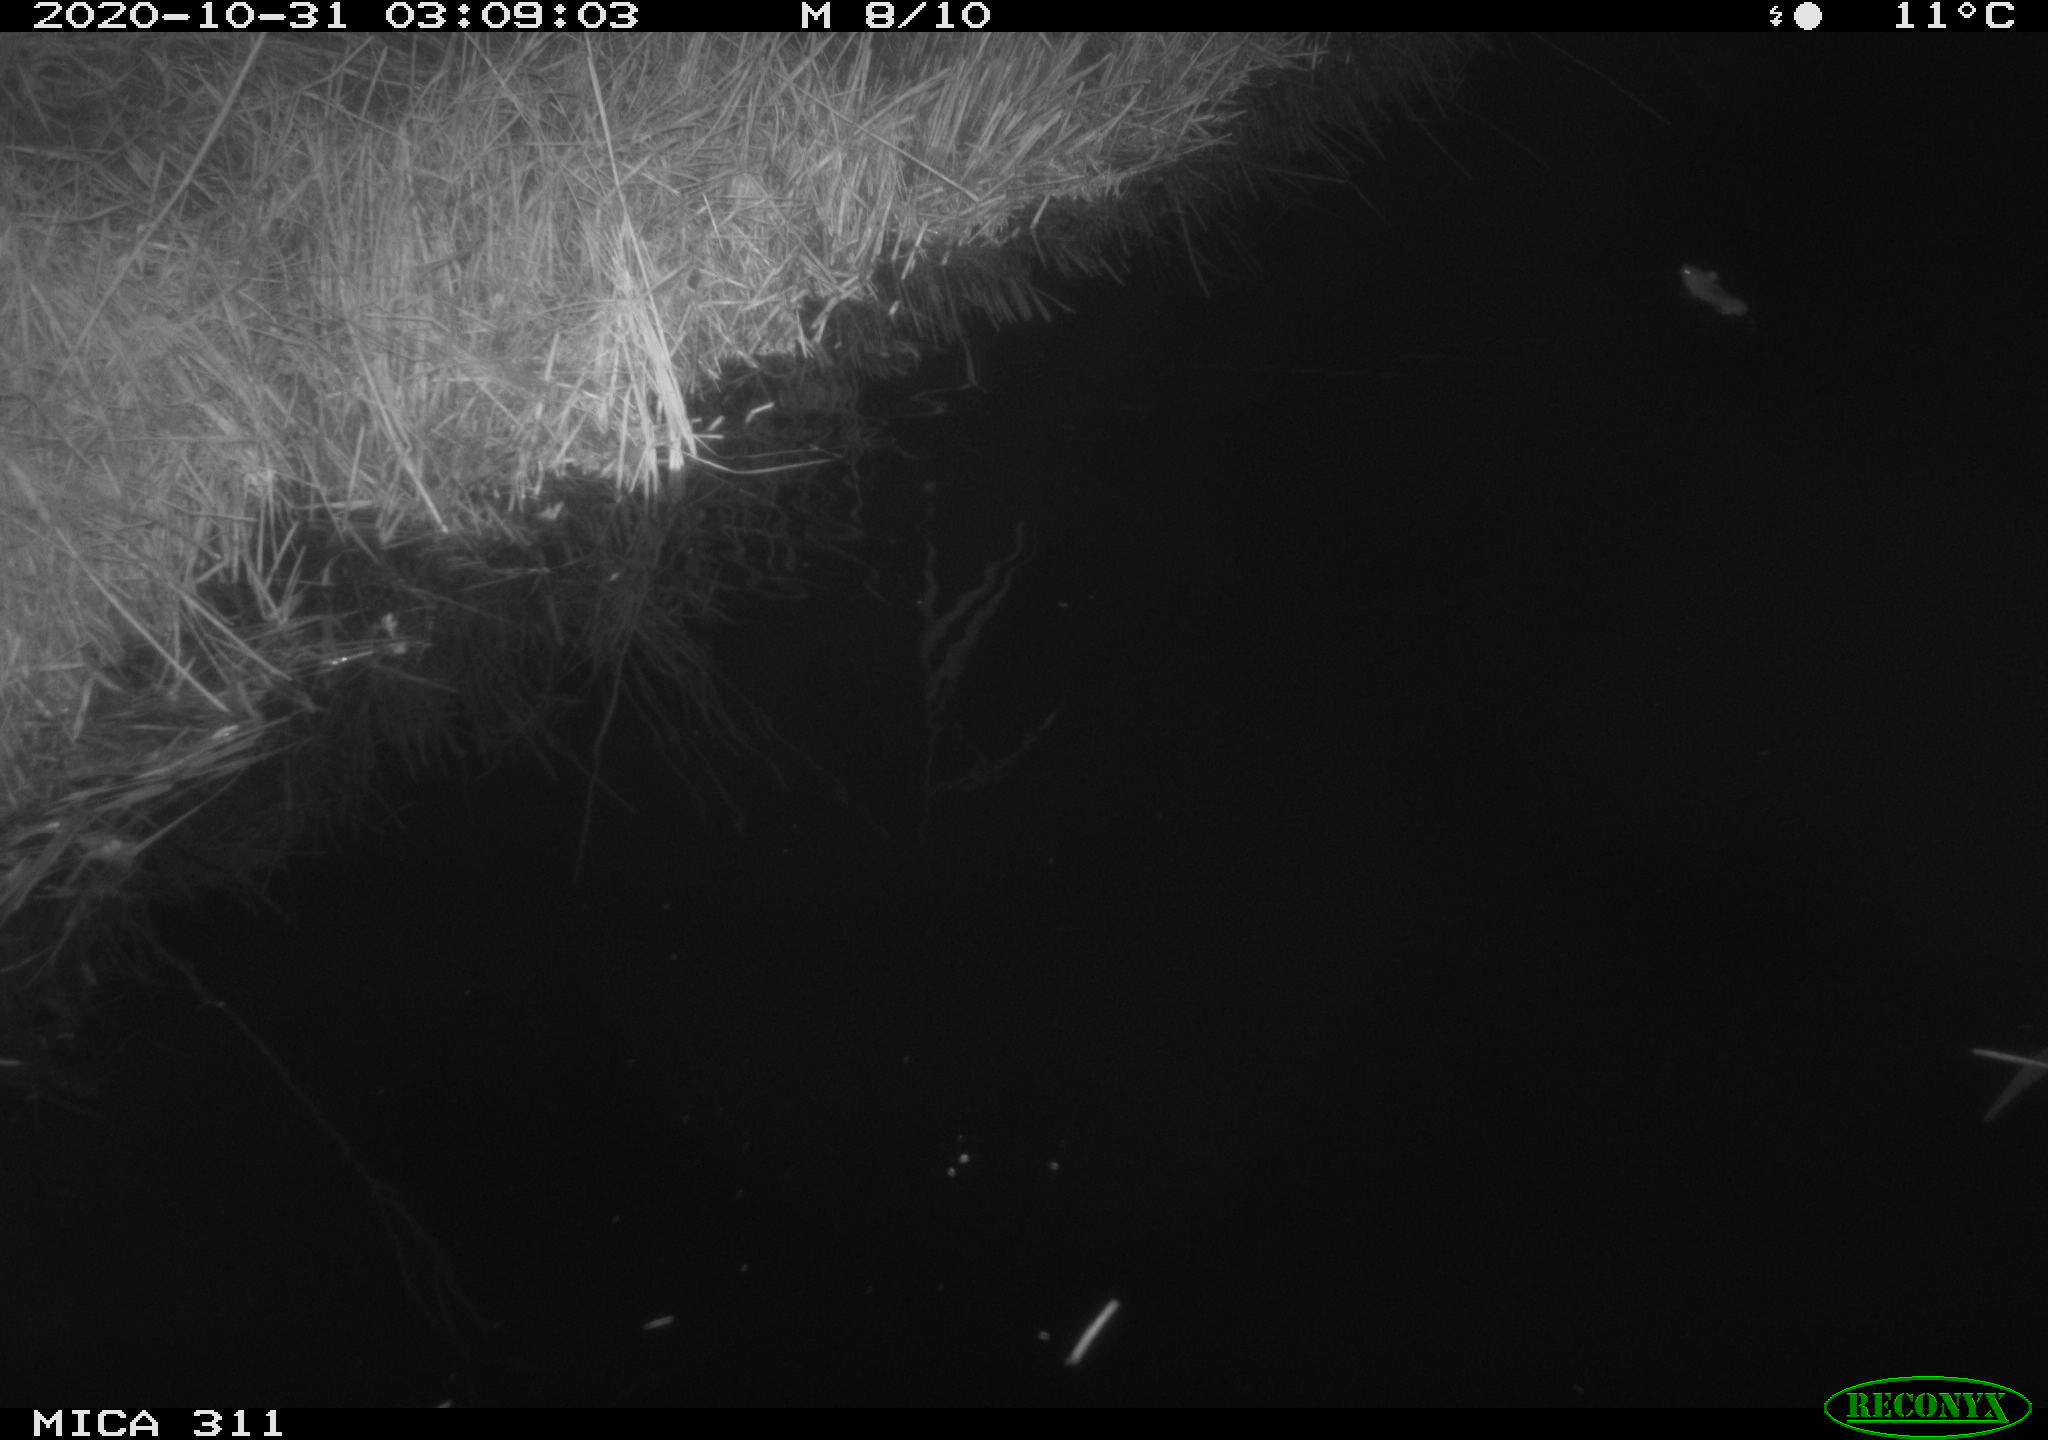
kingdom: Animalia
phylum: Chordata
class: Mammalia
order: Rodentia
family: Muridae
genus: Rattus
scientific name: Rattus norvegicus
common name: Brown rat
